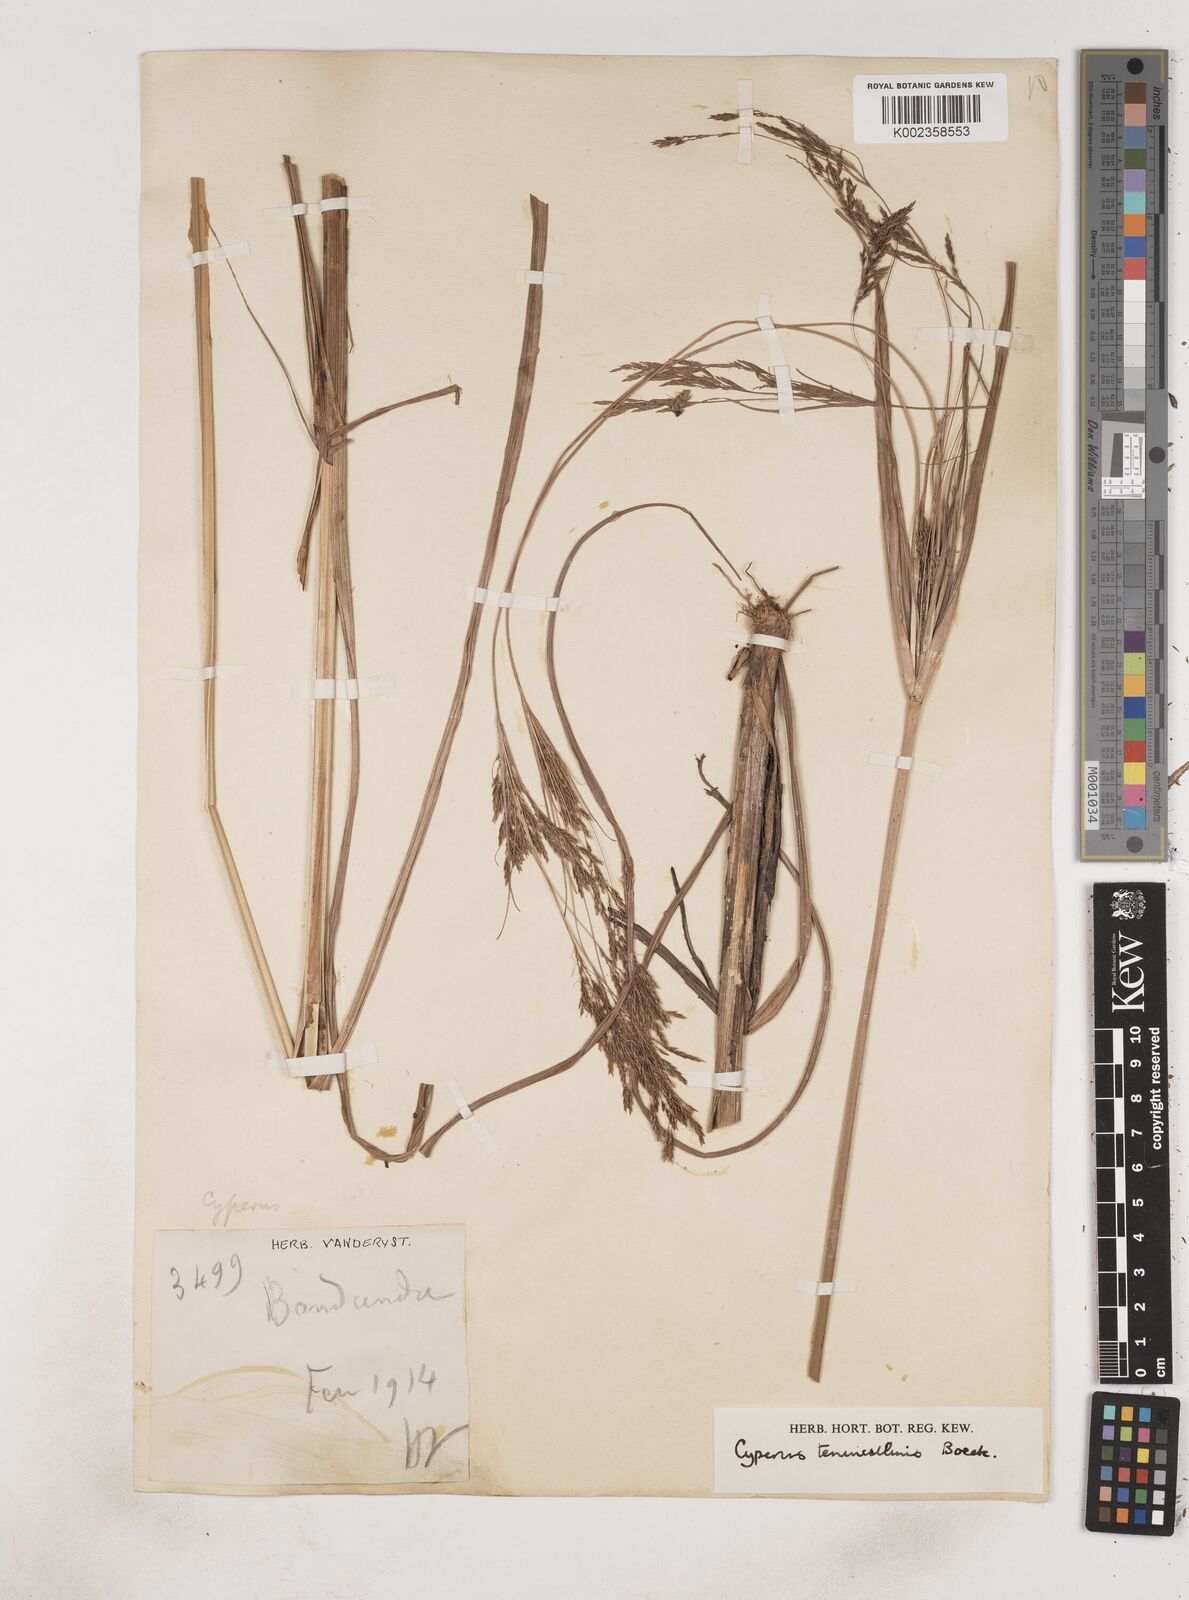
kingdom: Plantae
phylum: Tracheophyta
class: Liliopsida
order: Poales
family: Cyperaceae
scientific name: Cyperaceae
